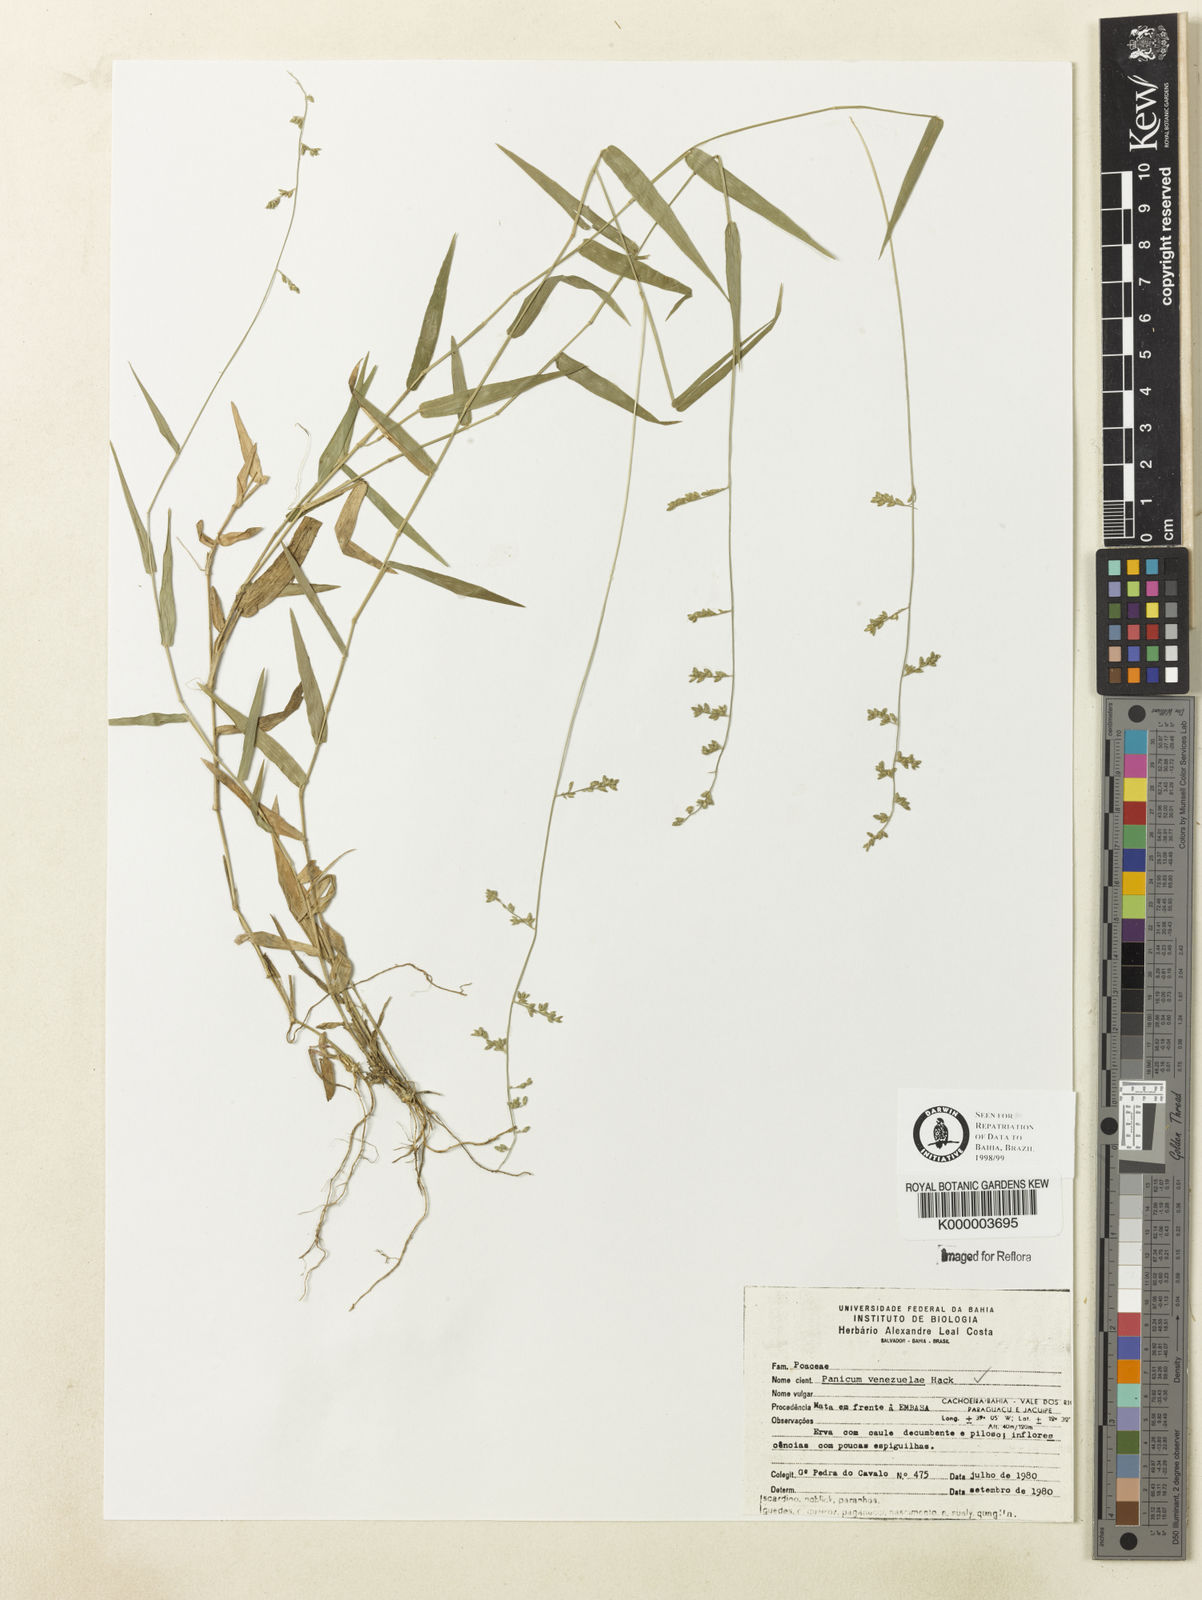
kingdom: Plantae
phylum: Tracheophyta
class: Liliopsida
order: Poales
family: Poaceae
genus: Panicum
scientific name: Panicum venezuelae
